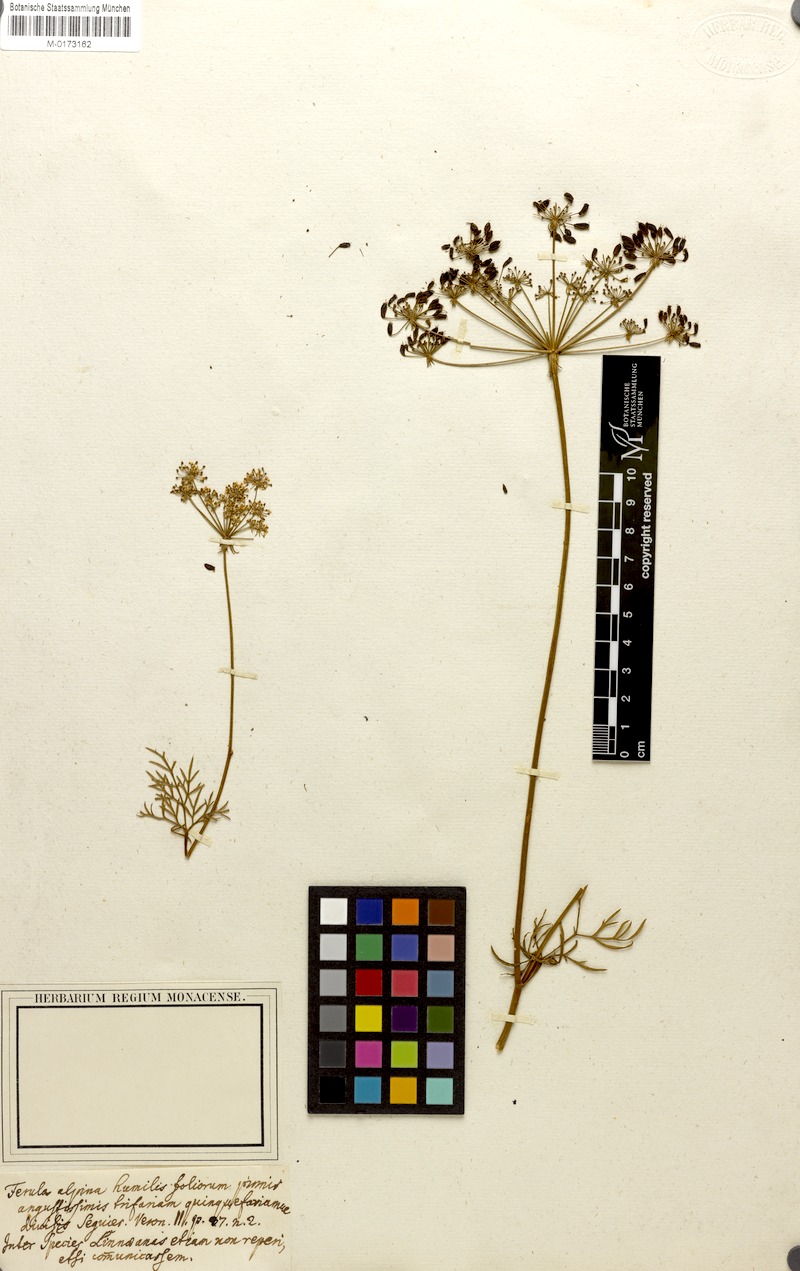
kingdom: Plantae
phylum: Tracheophyta
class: Magnoliopsida
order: Apiales
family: Apiaceae
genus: Peucedanum
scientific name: Peucedanum austriacum
